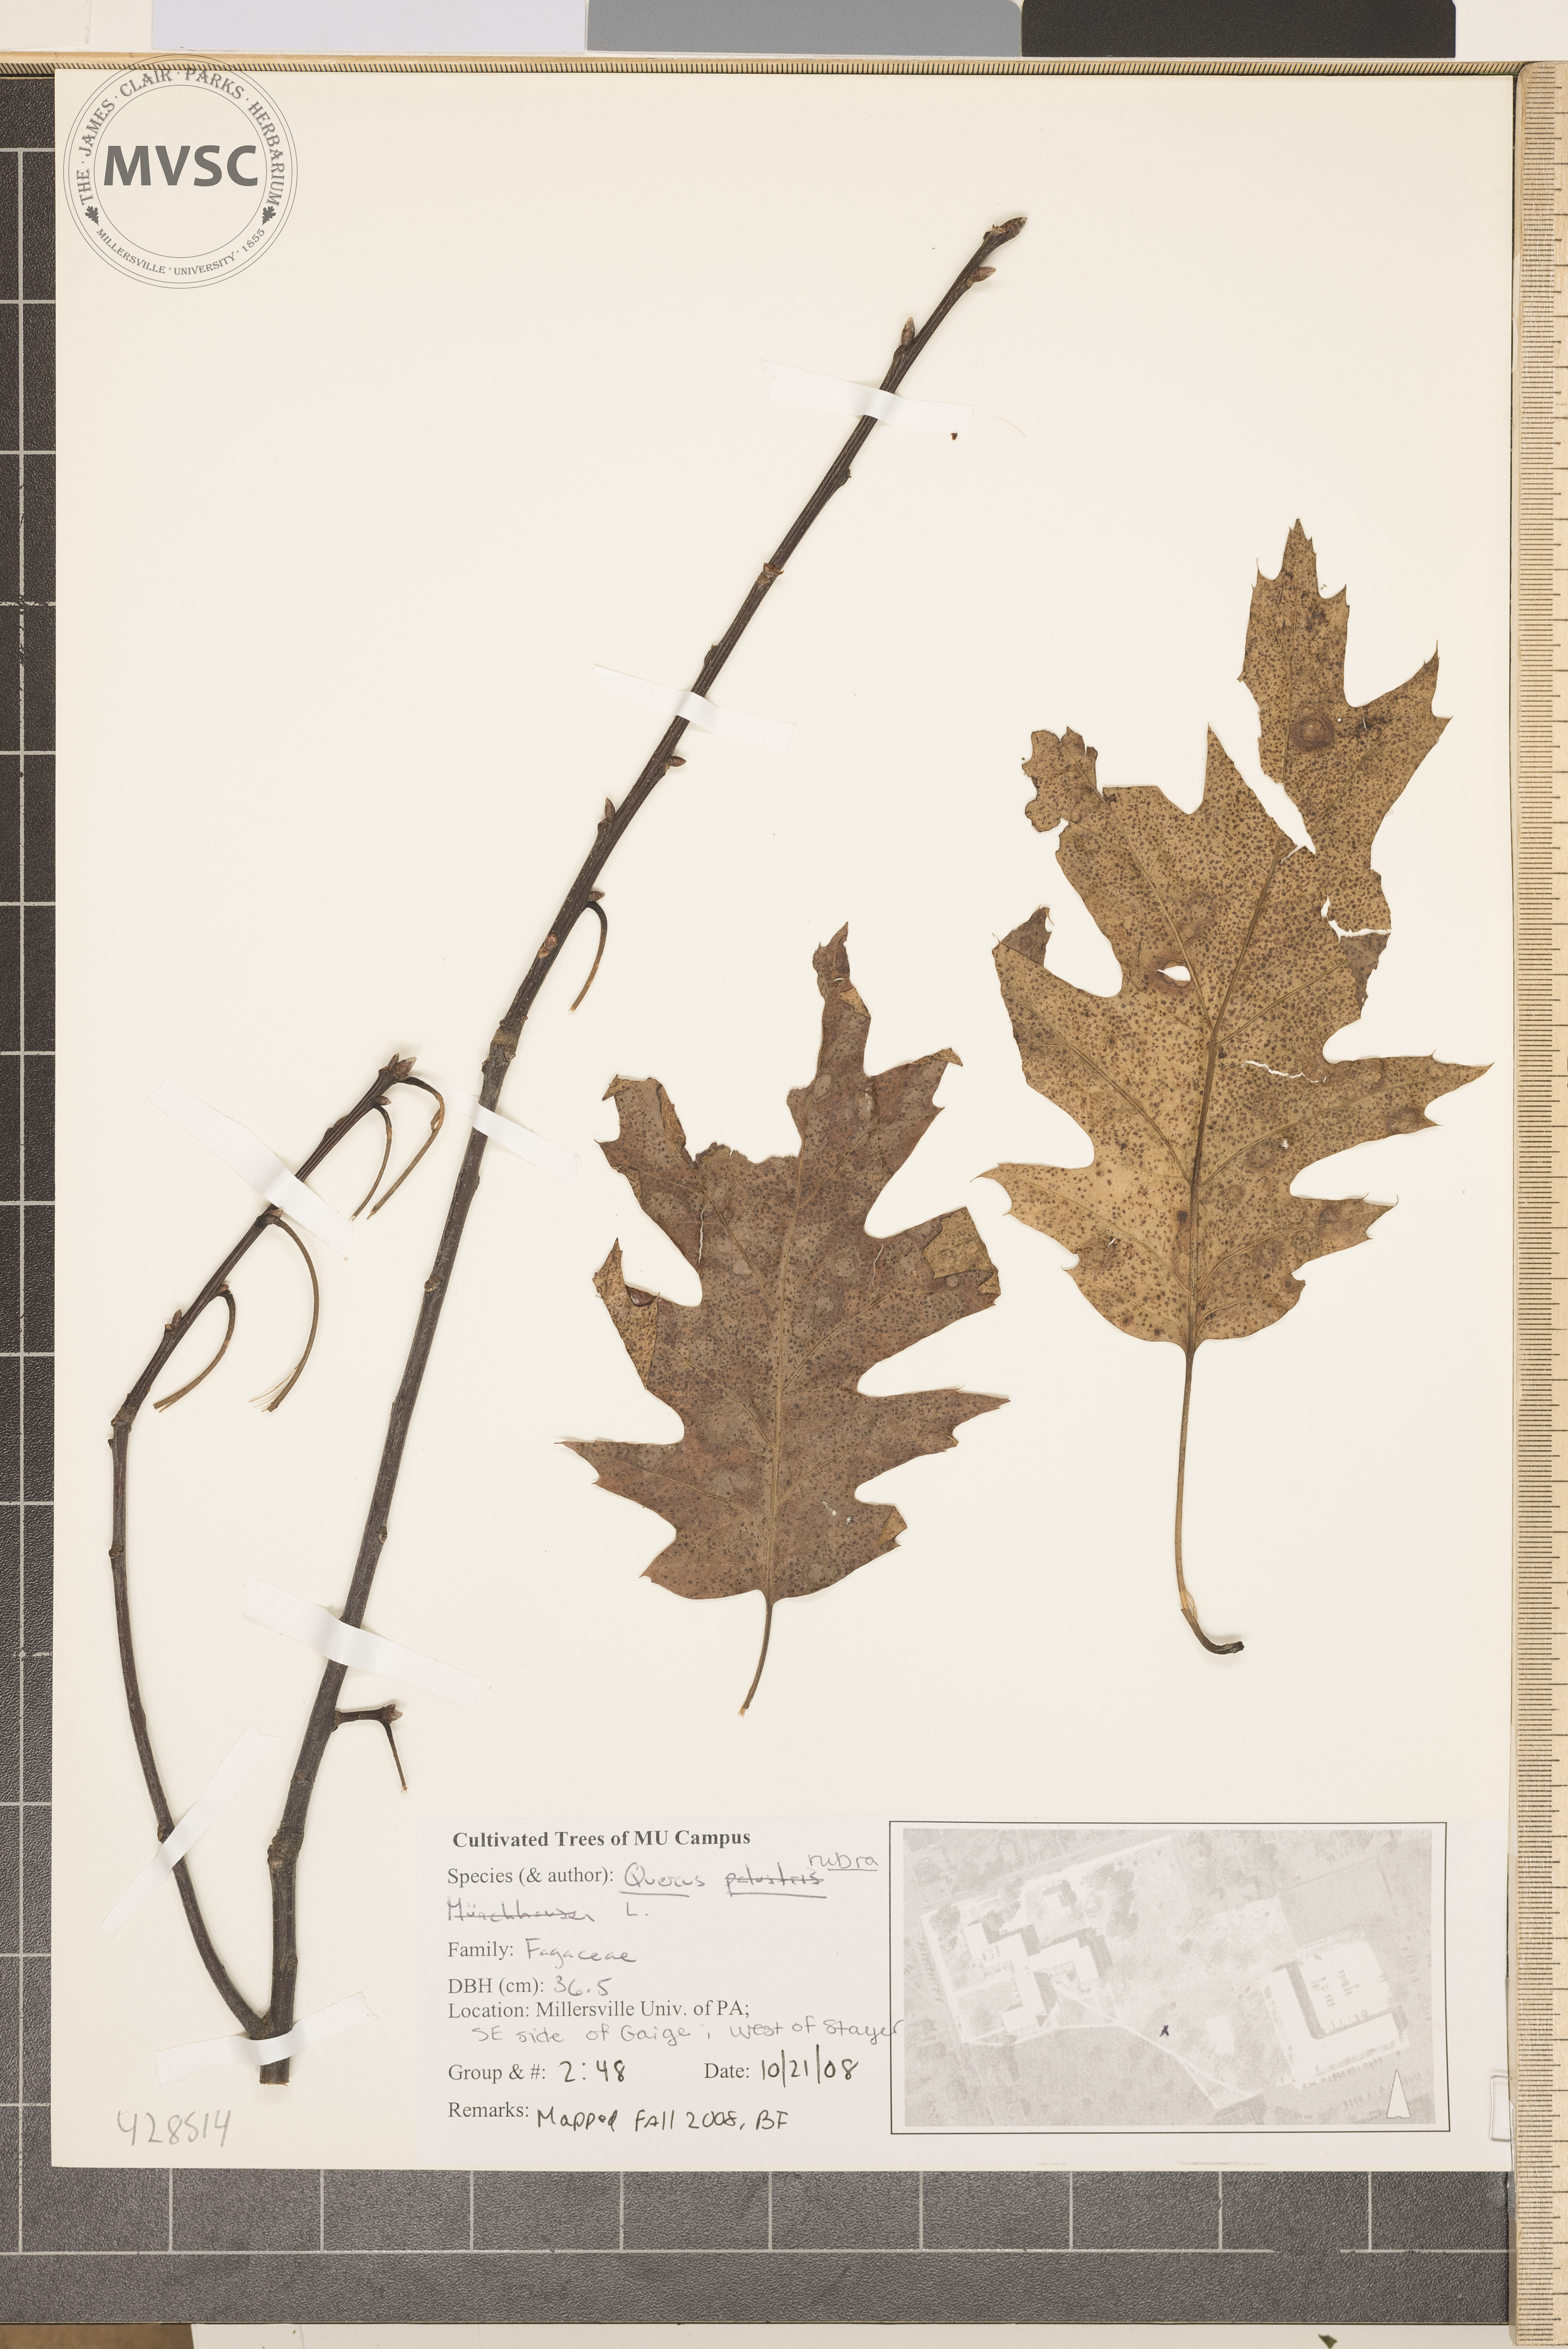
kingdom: Plantae
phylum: Tracheophyta
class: Magnoliopsida
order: Fagales
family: Fagaceae
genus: Quercus
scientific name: Quercus rubra
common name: Northern Red Oak
